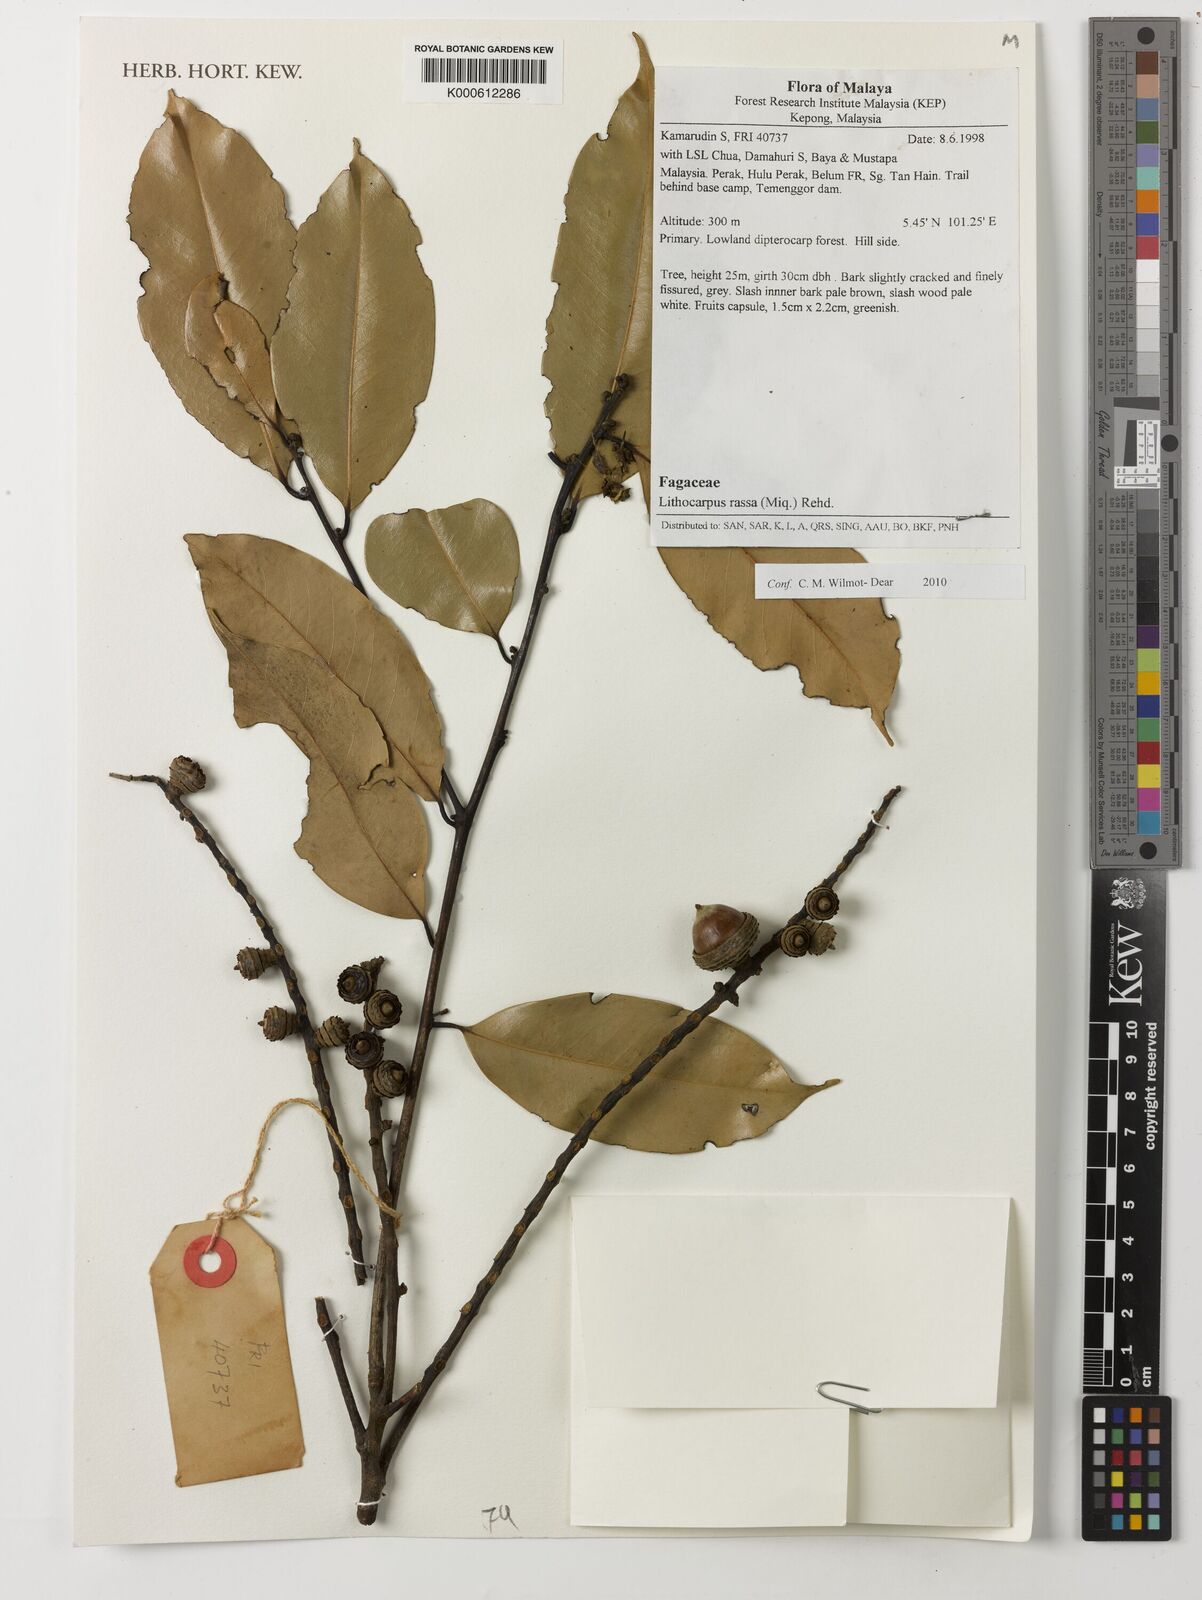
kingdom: Plantae
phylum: Tracheophyta
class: Magnoliopsida
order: Fagales
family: Fagaceae
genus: Lithocarpus
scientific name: Lithocarpus rassa
